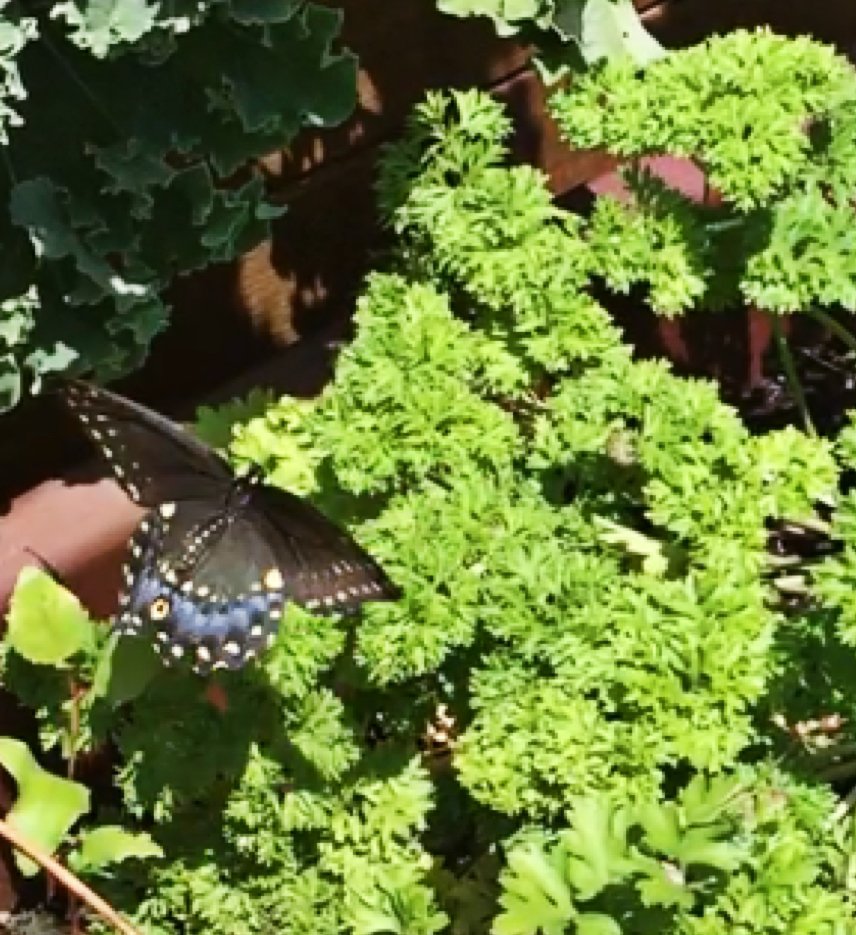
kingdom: Animalia
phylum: Arthropoda
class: Insecta
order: Lepidoptera
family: Papilionidae
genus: Papilio
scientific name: Papilio polyxenes
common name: Black Swallowtail
